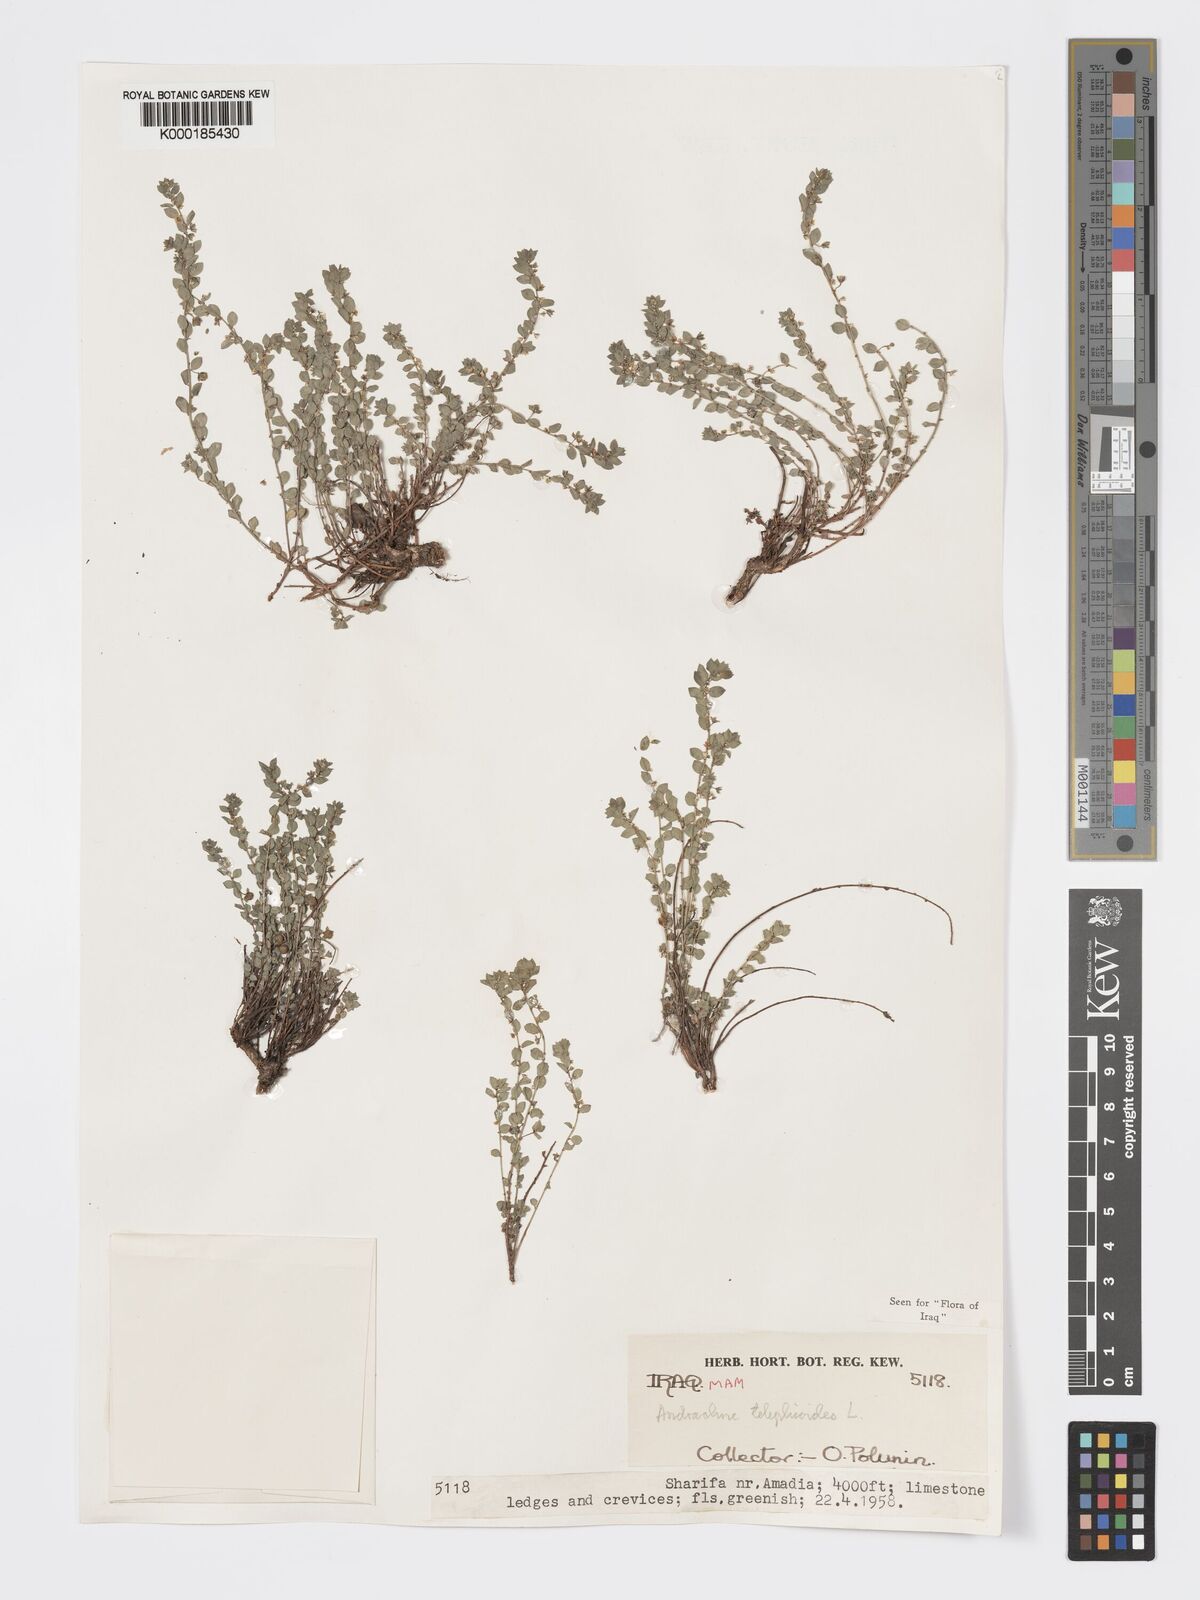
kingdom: Plantae
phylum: Tracheophyta
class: Magnoliopsida
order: Malpighiales
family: Phyllanthaceae
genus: Andrachne
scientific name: Andrachne telephioides
